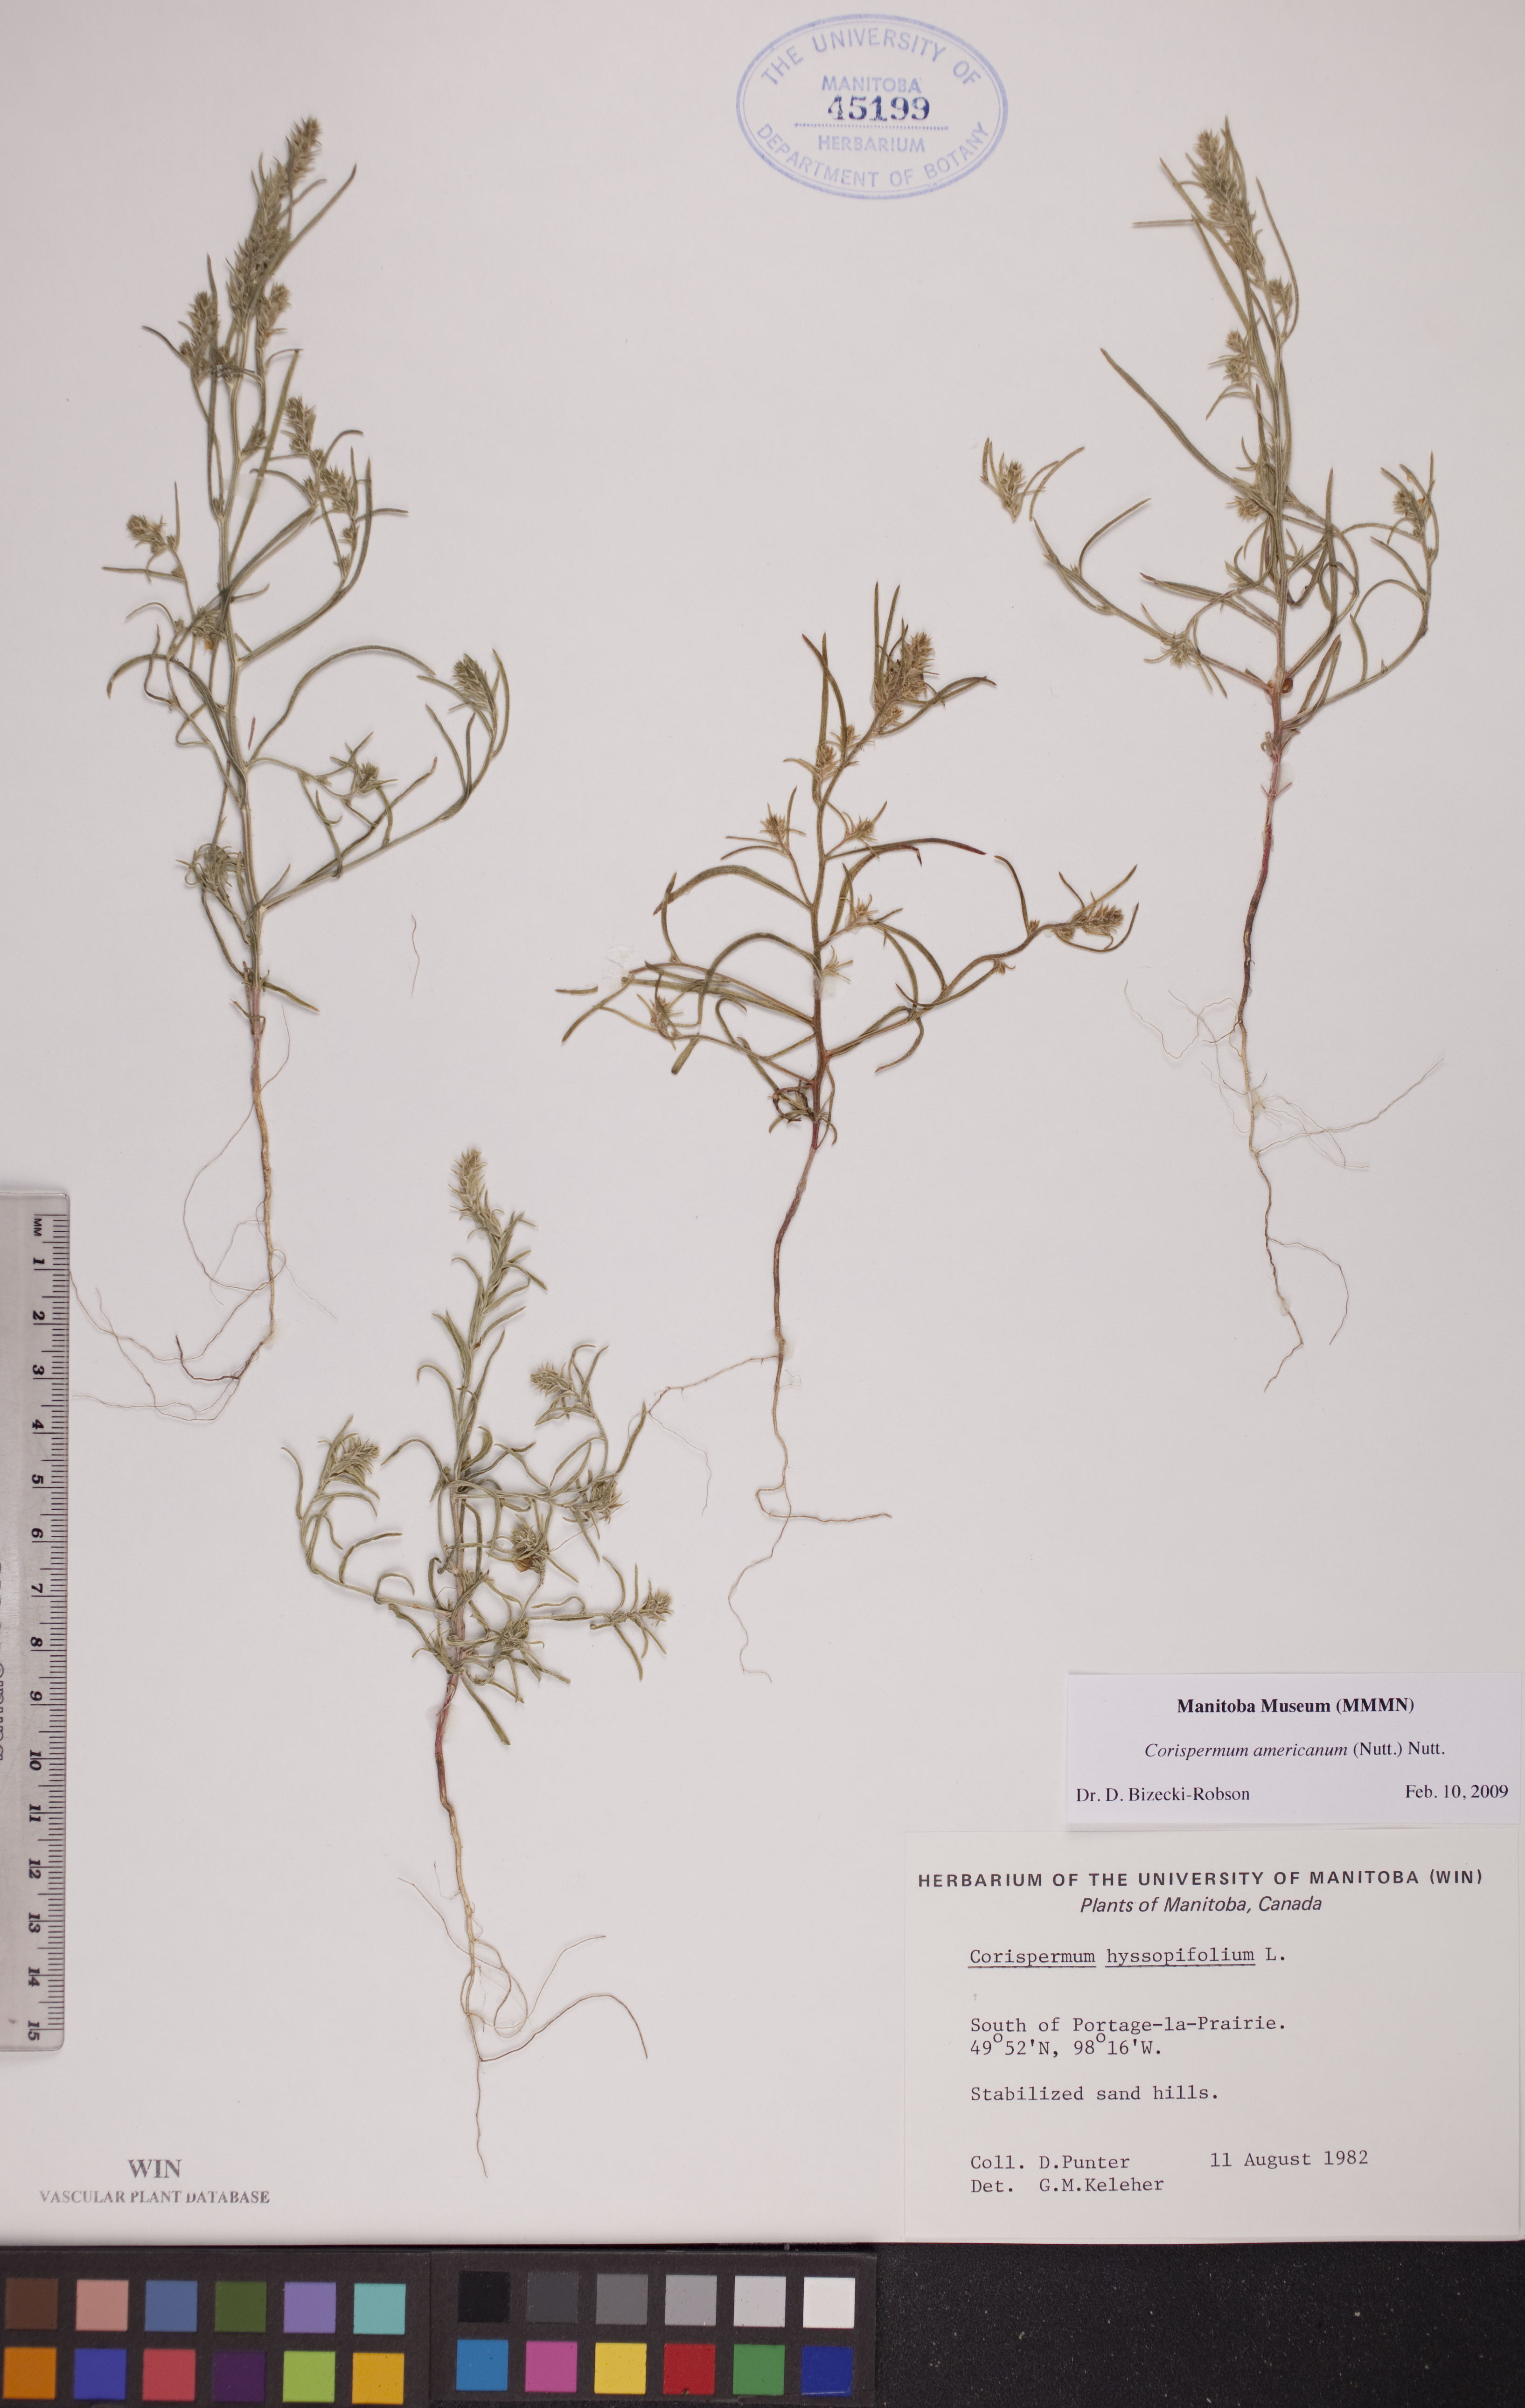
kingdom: Plantae
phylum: Tracheophyta
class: Magnoliopsida
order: Caryophyllales
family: Amaranthaceae
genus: Corispermum
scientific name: Corispermum americanum
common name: American bugseed
